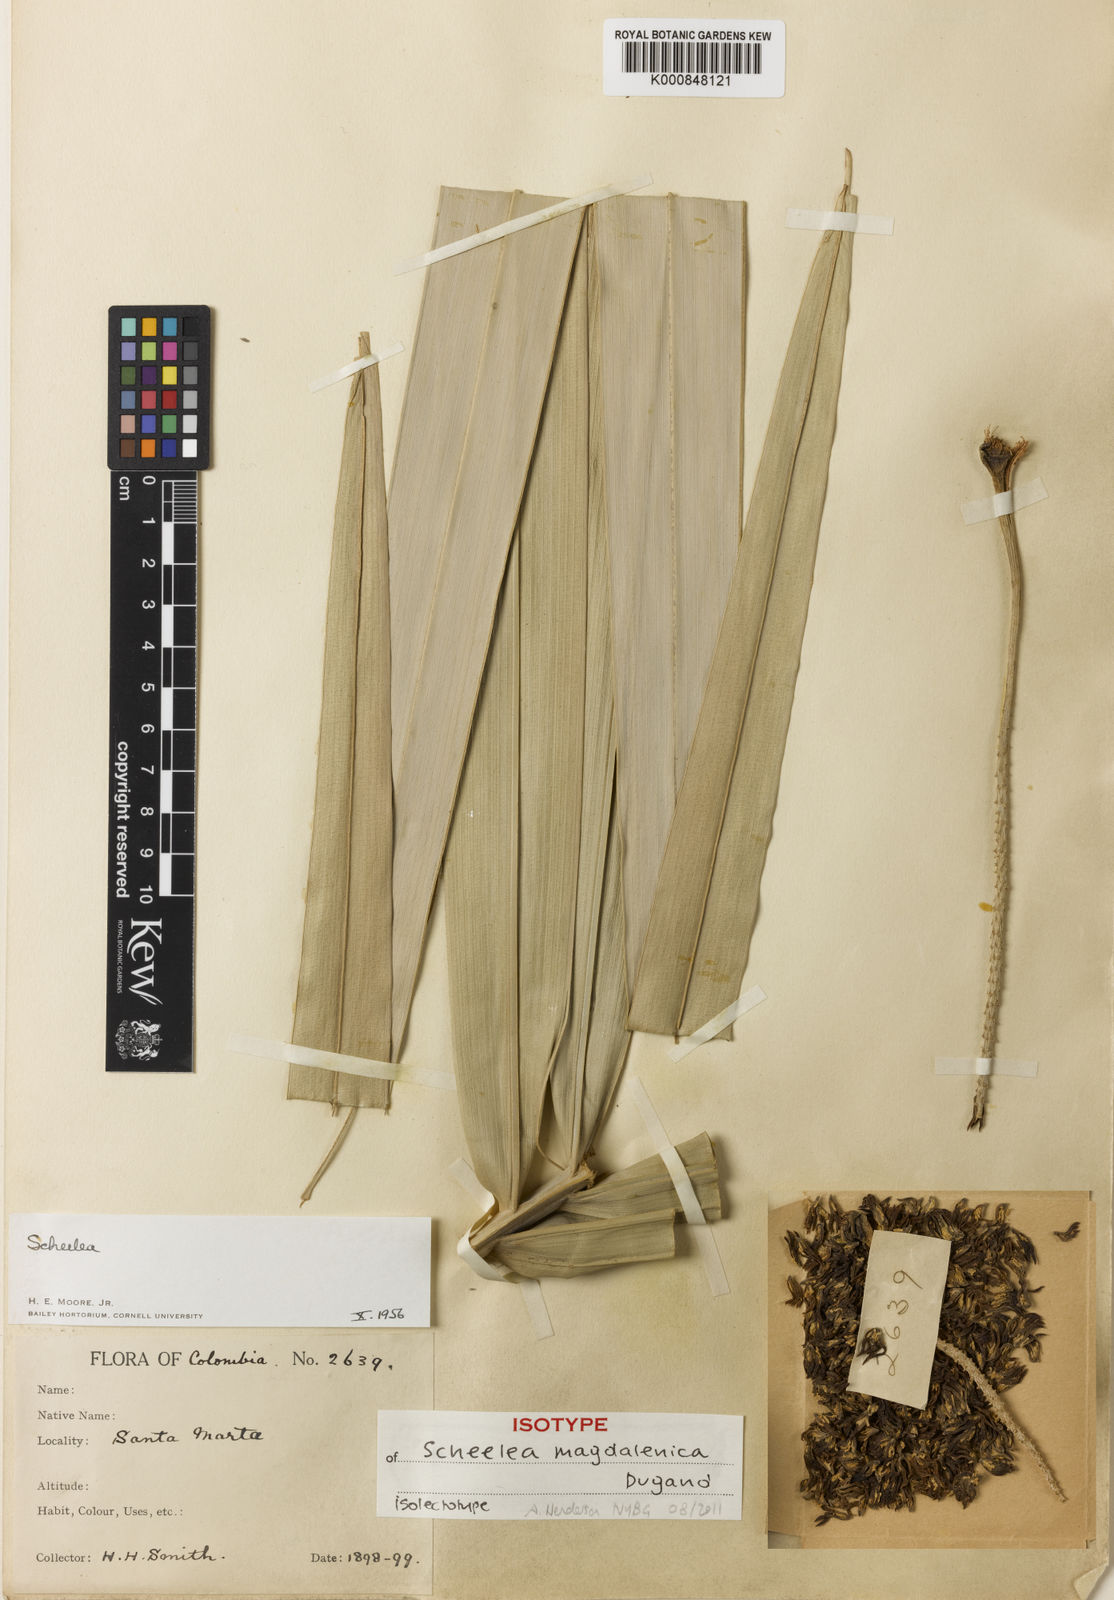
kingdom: Plantae
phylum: Tracheophyta
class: Liliopsida
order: Arecales
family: Arecaceae
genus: Attalea
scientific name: Attalea magdalenica
